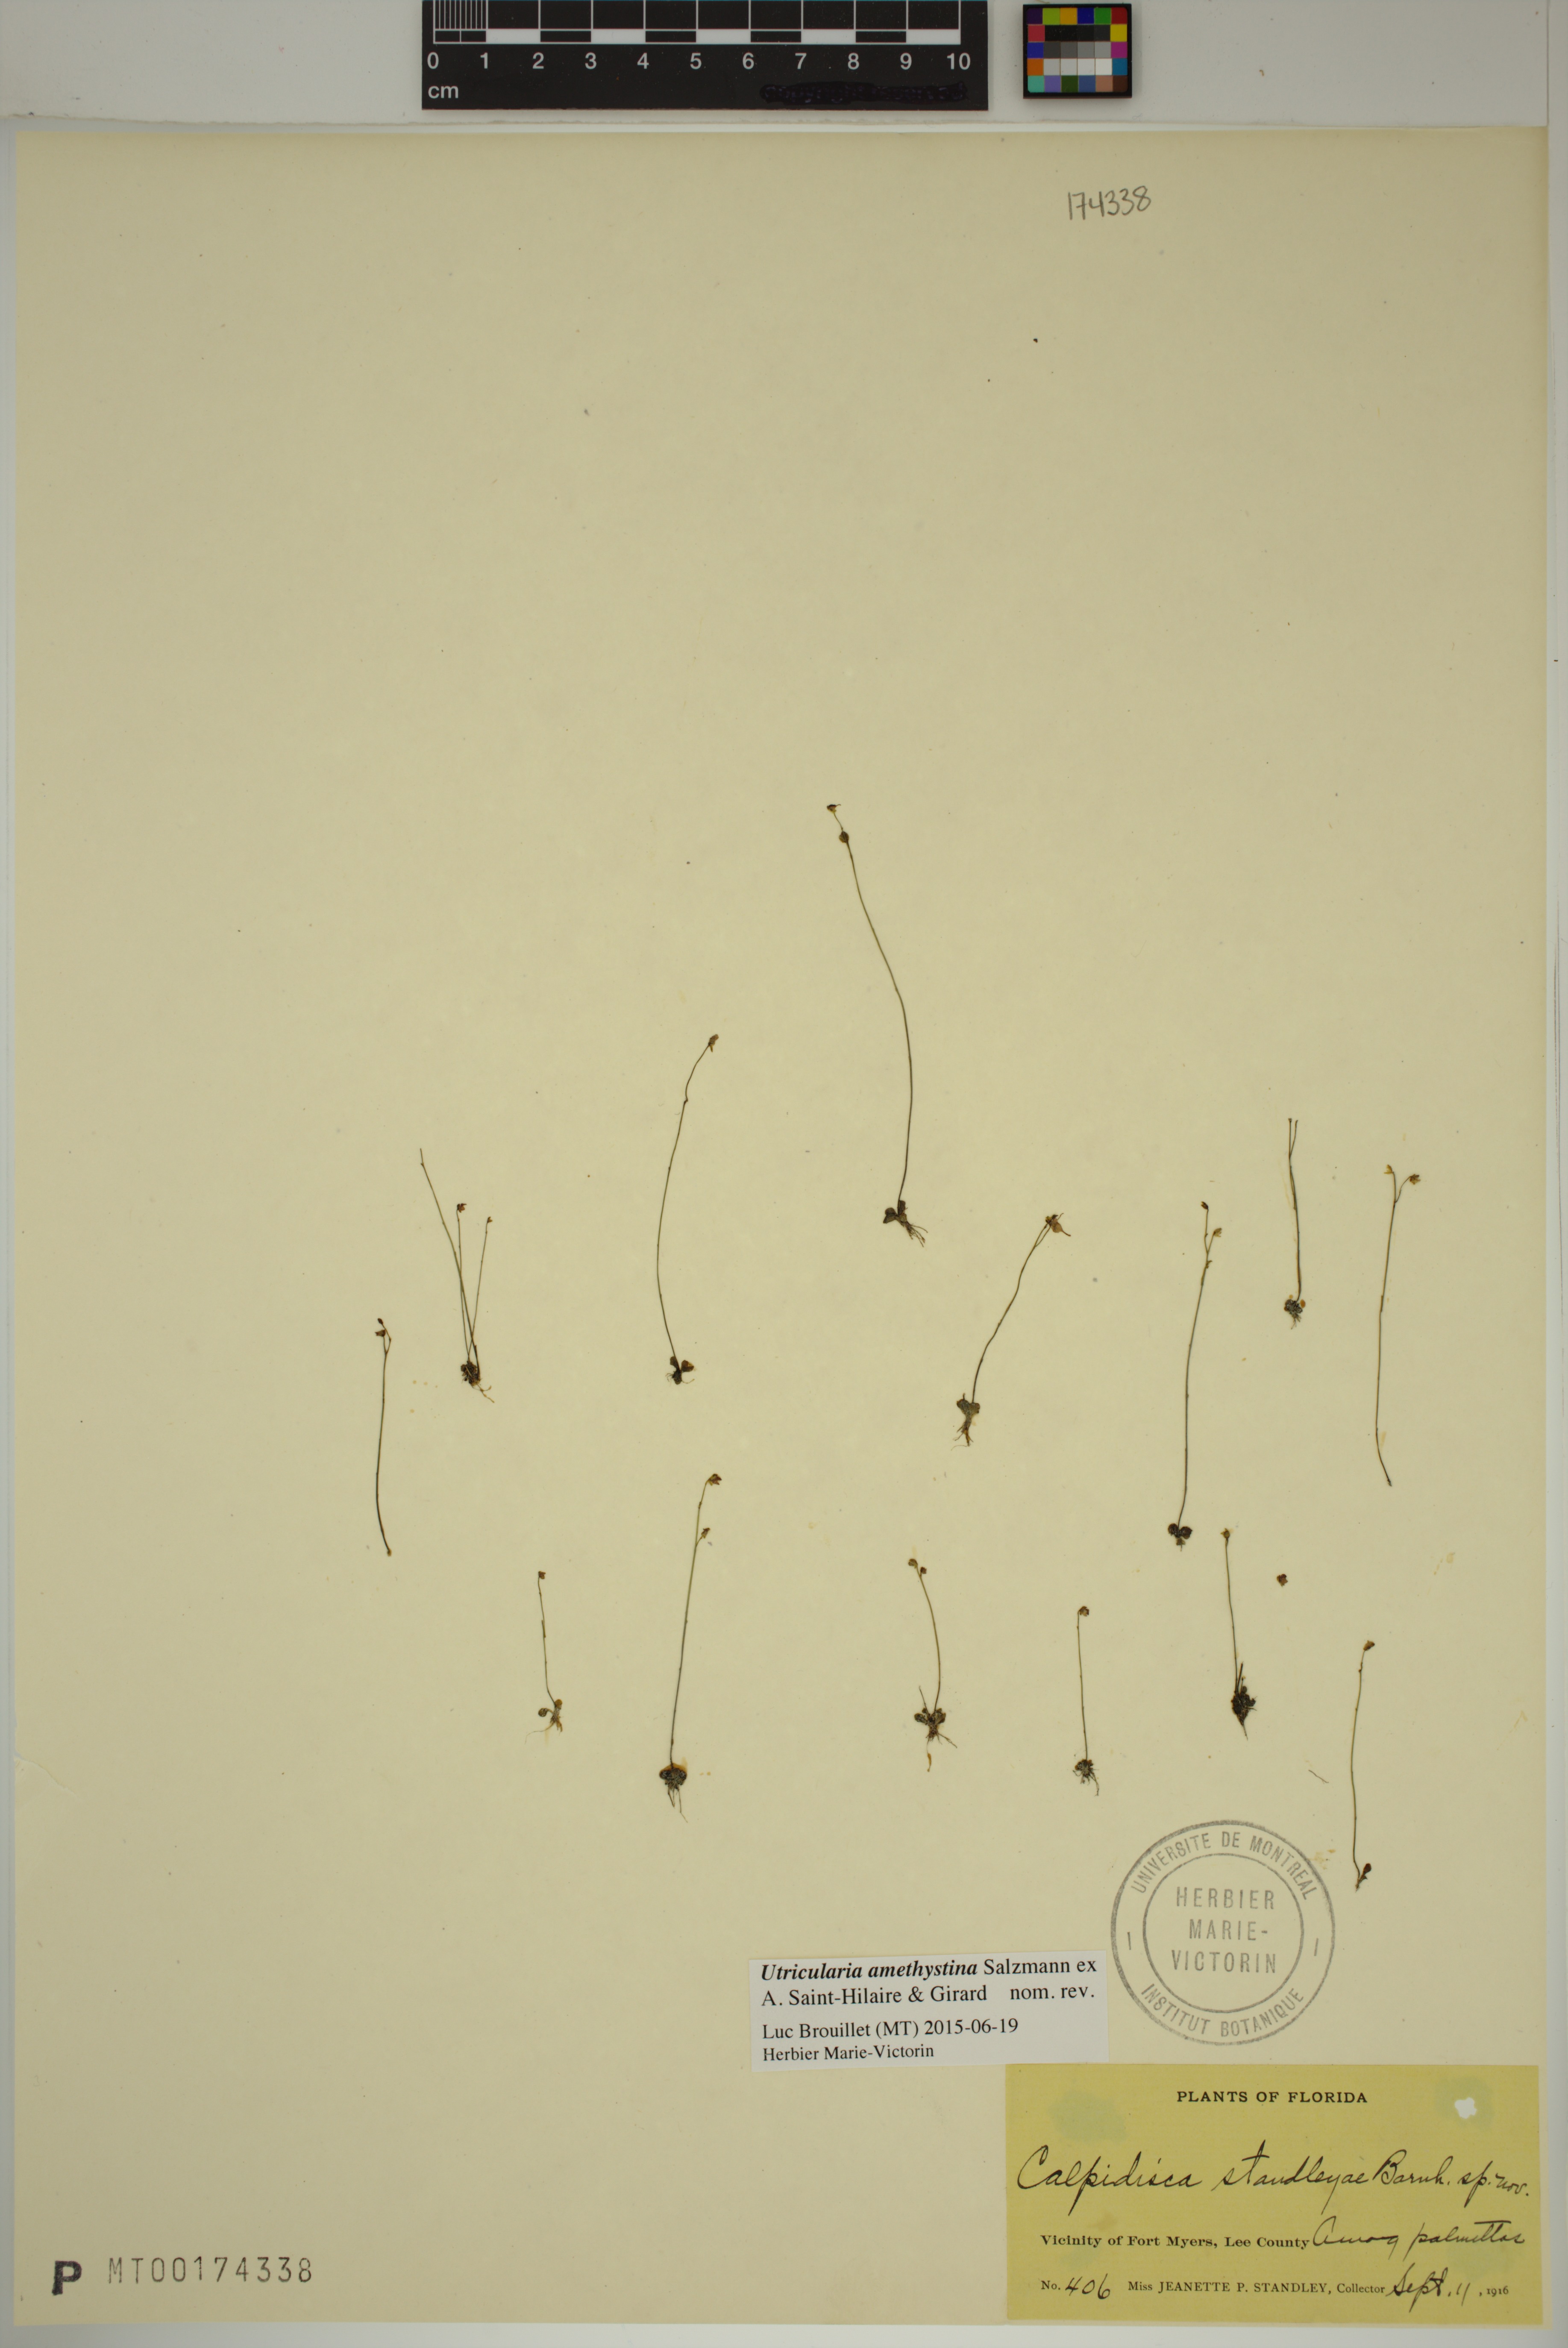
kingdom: Plantae
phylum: Tracheophyta
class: Magnoliopsida
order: Lamiales
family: Lentibulariaceae
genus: Utricularia
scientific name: Utricularia amethystina
